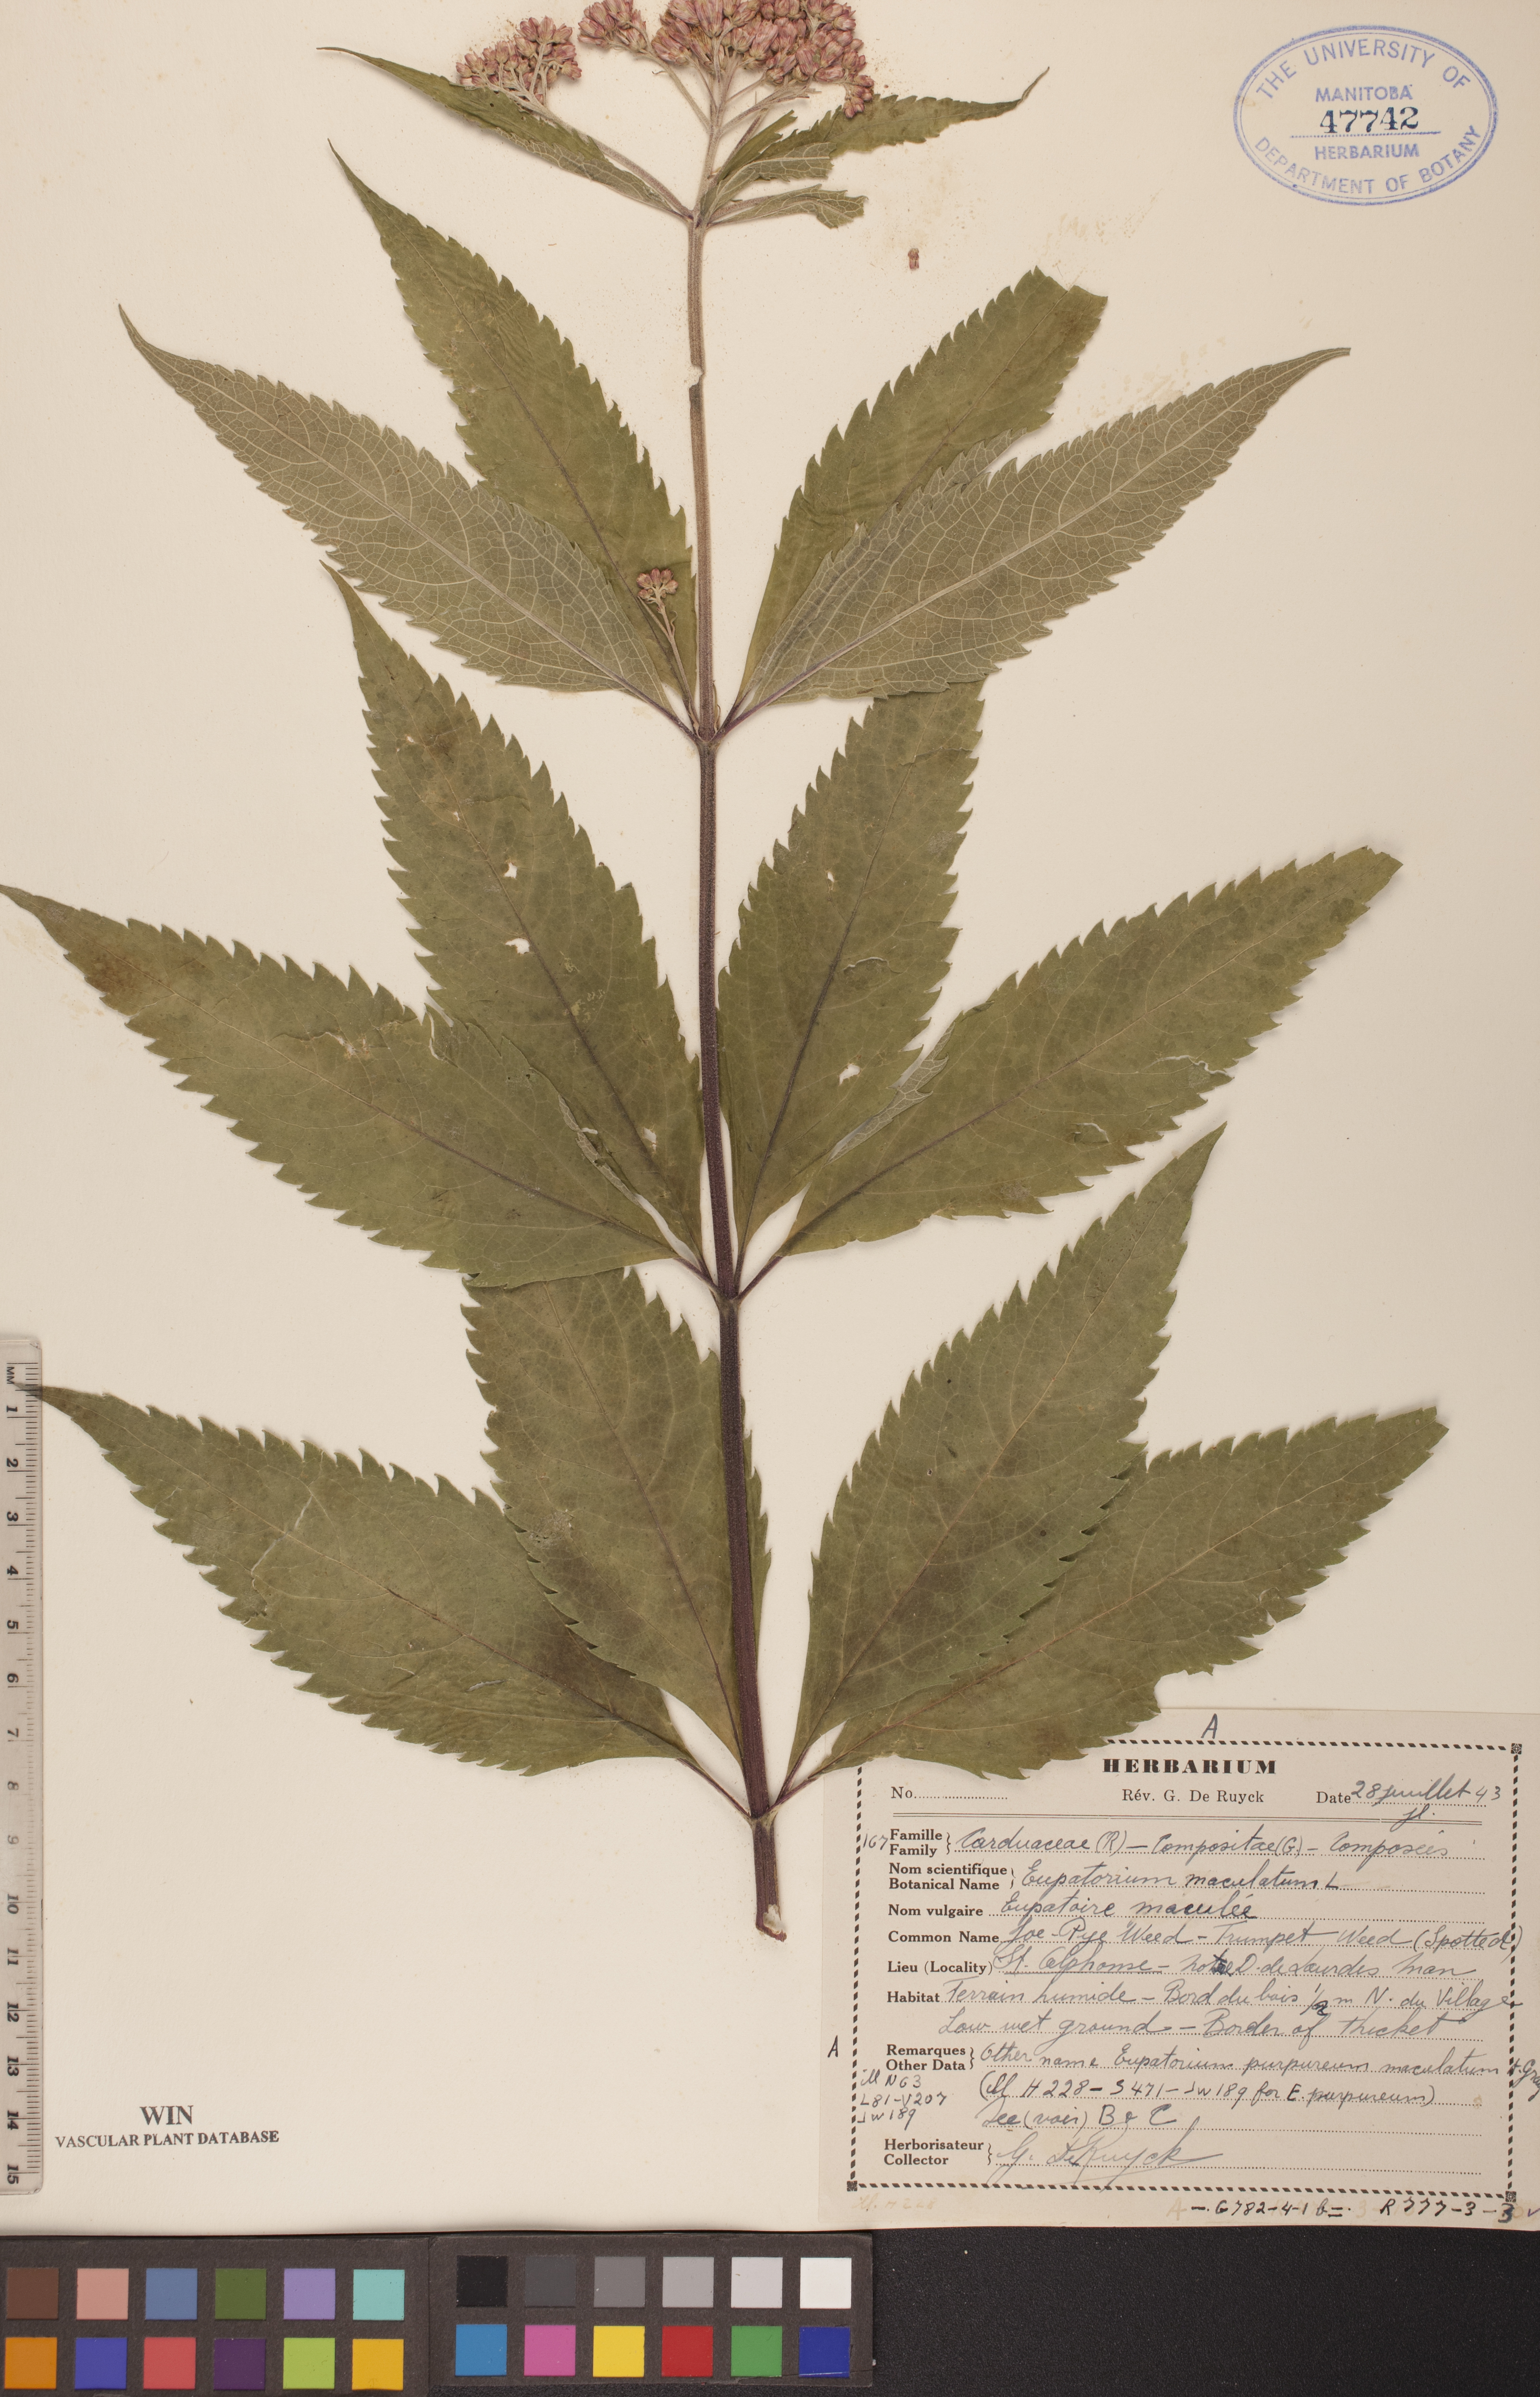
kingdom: Plantae
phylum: Tracheophyta
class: Magnoliopsida
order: Asterales
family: Asteraceae
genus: Eutrochium
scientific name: Eutrochium maculatum
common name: Spotted joe pye weed
